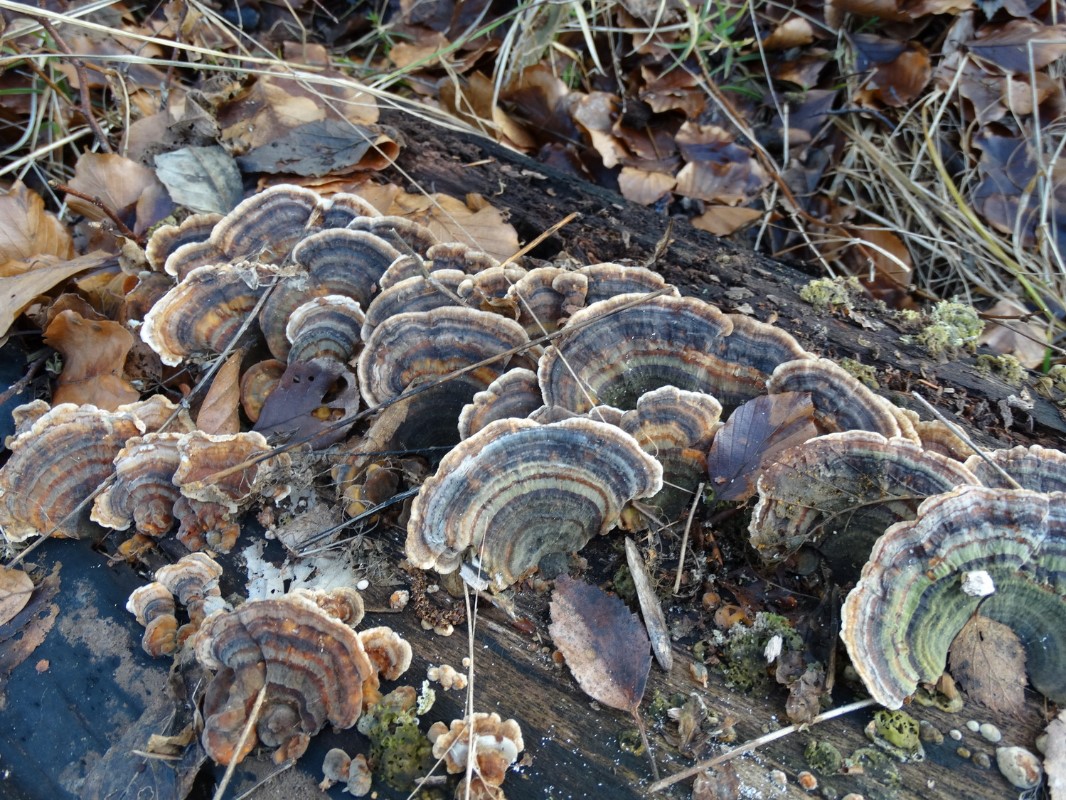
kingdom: Fungi
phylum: Basidiomycota
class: Agaricomycetes
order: Polyporales
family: Polyporaceae
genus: Trametes
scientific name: Trametes versicolor
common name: broget læderporesvamp
